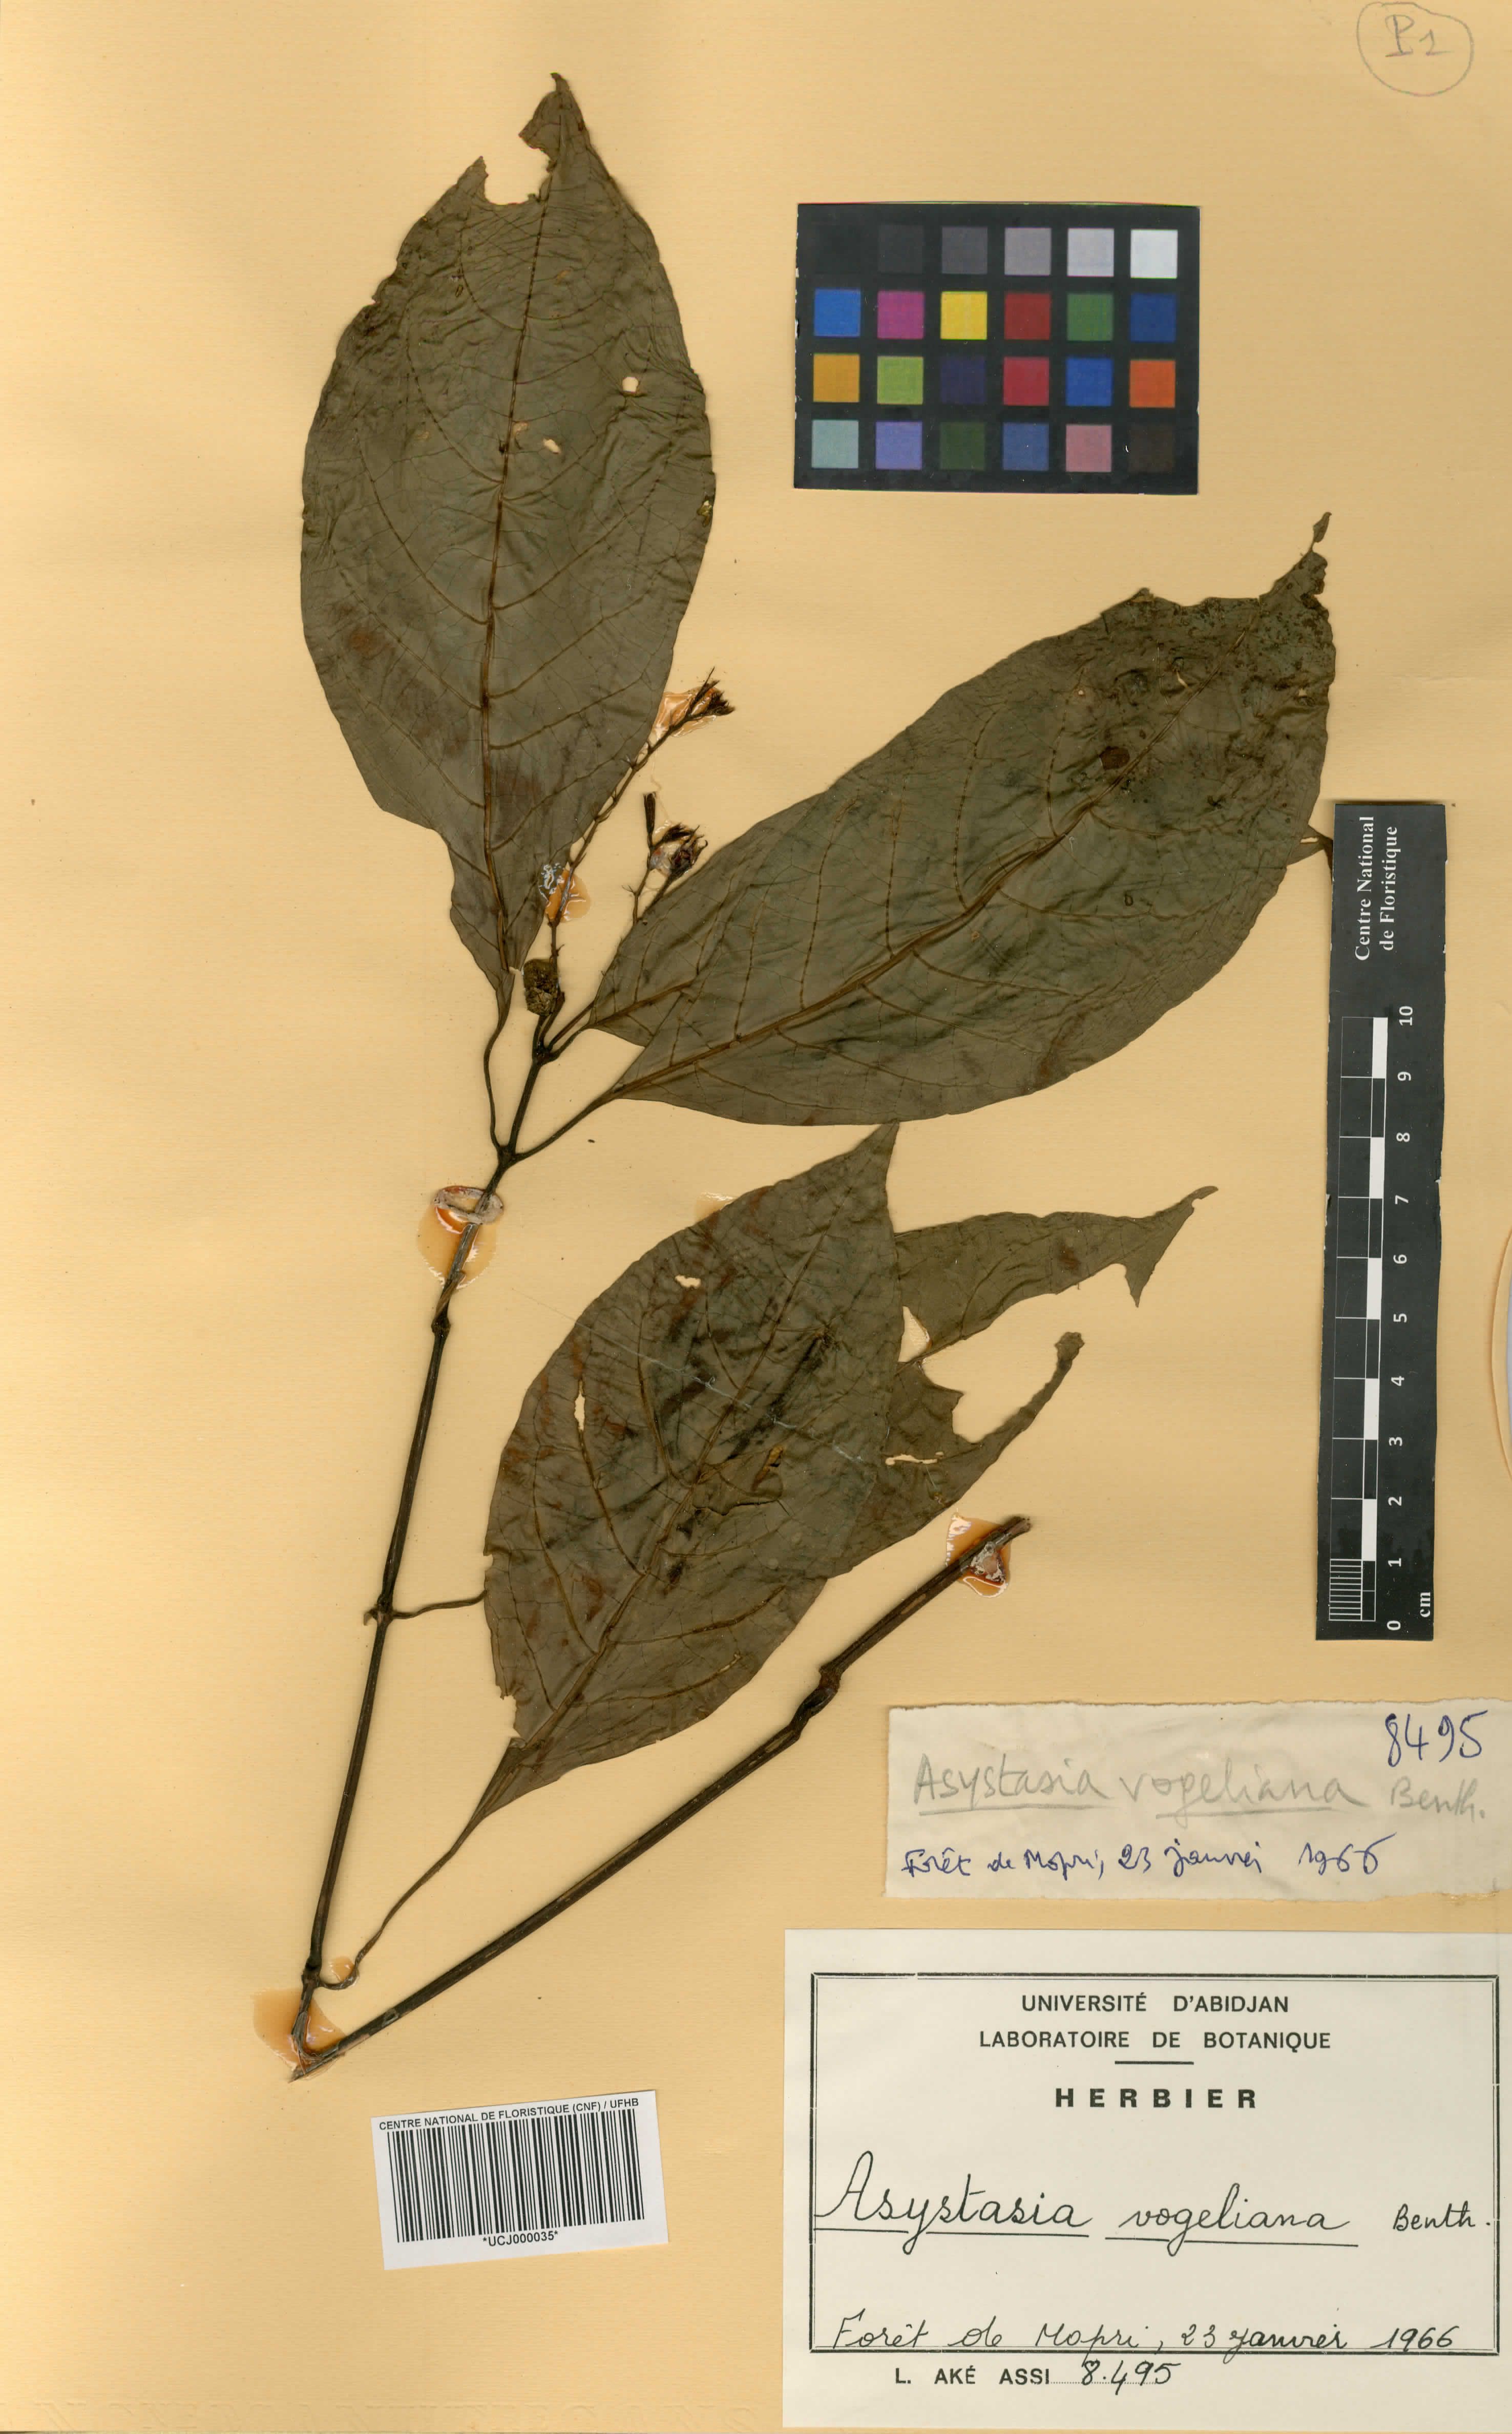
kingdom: Plantae
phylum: Tracheophyta
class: Magnoliopsida
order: Lamiales
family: Acanthaceae
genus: Asystasia
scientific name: Asystasia vogeliana
